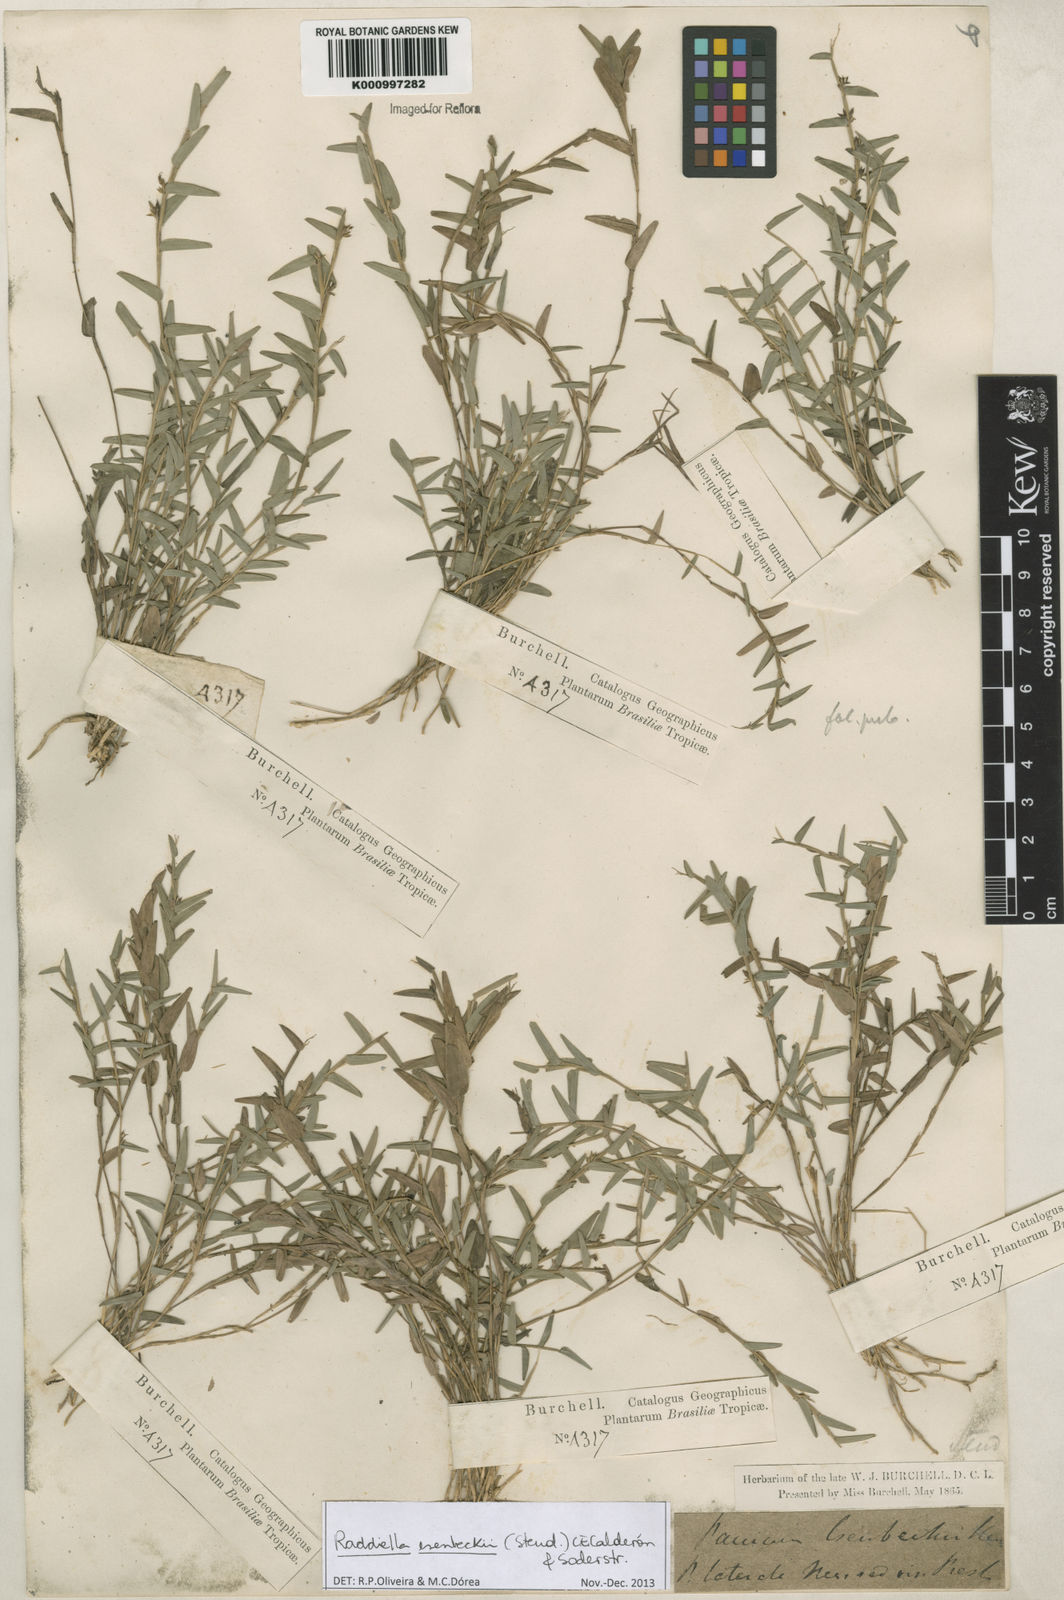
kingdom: Plantae
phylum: Tracheophyta
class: Liliopsida
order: Poales
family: Poaceae
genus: Raddiella
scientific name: Raddiella
